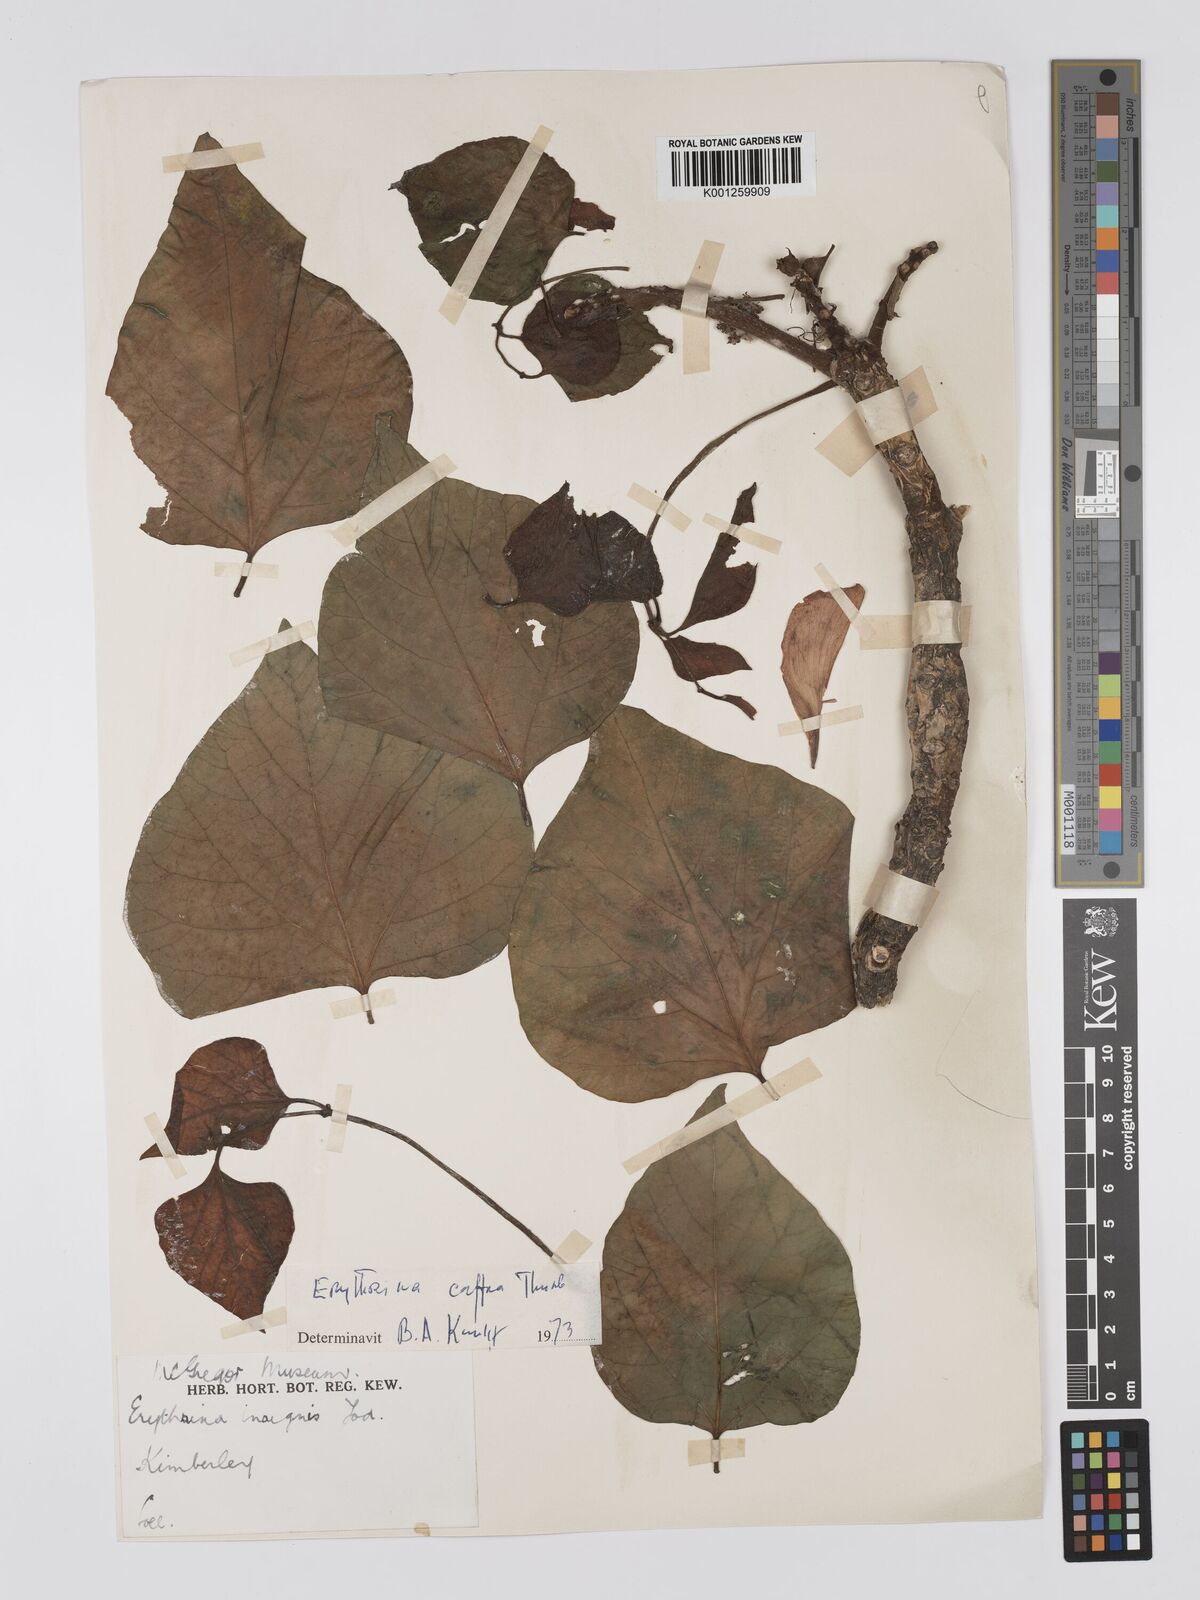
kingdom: Plantae
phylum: Tracheophyta
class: Magnoliopsida
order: Fabales
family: Fabaceae
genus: Erythrina
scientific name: Erythrina caffra
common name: Coast coral tree
